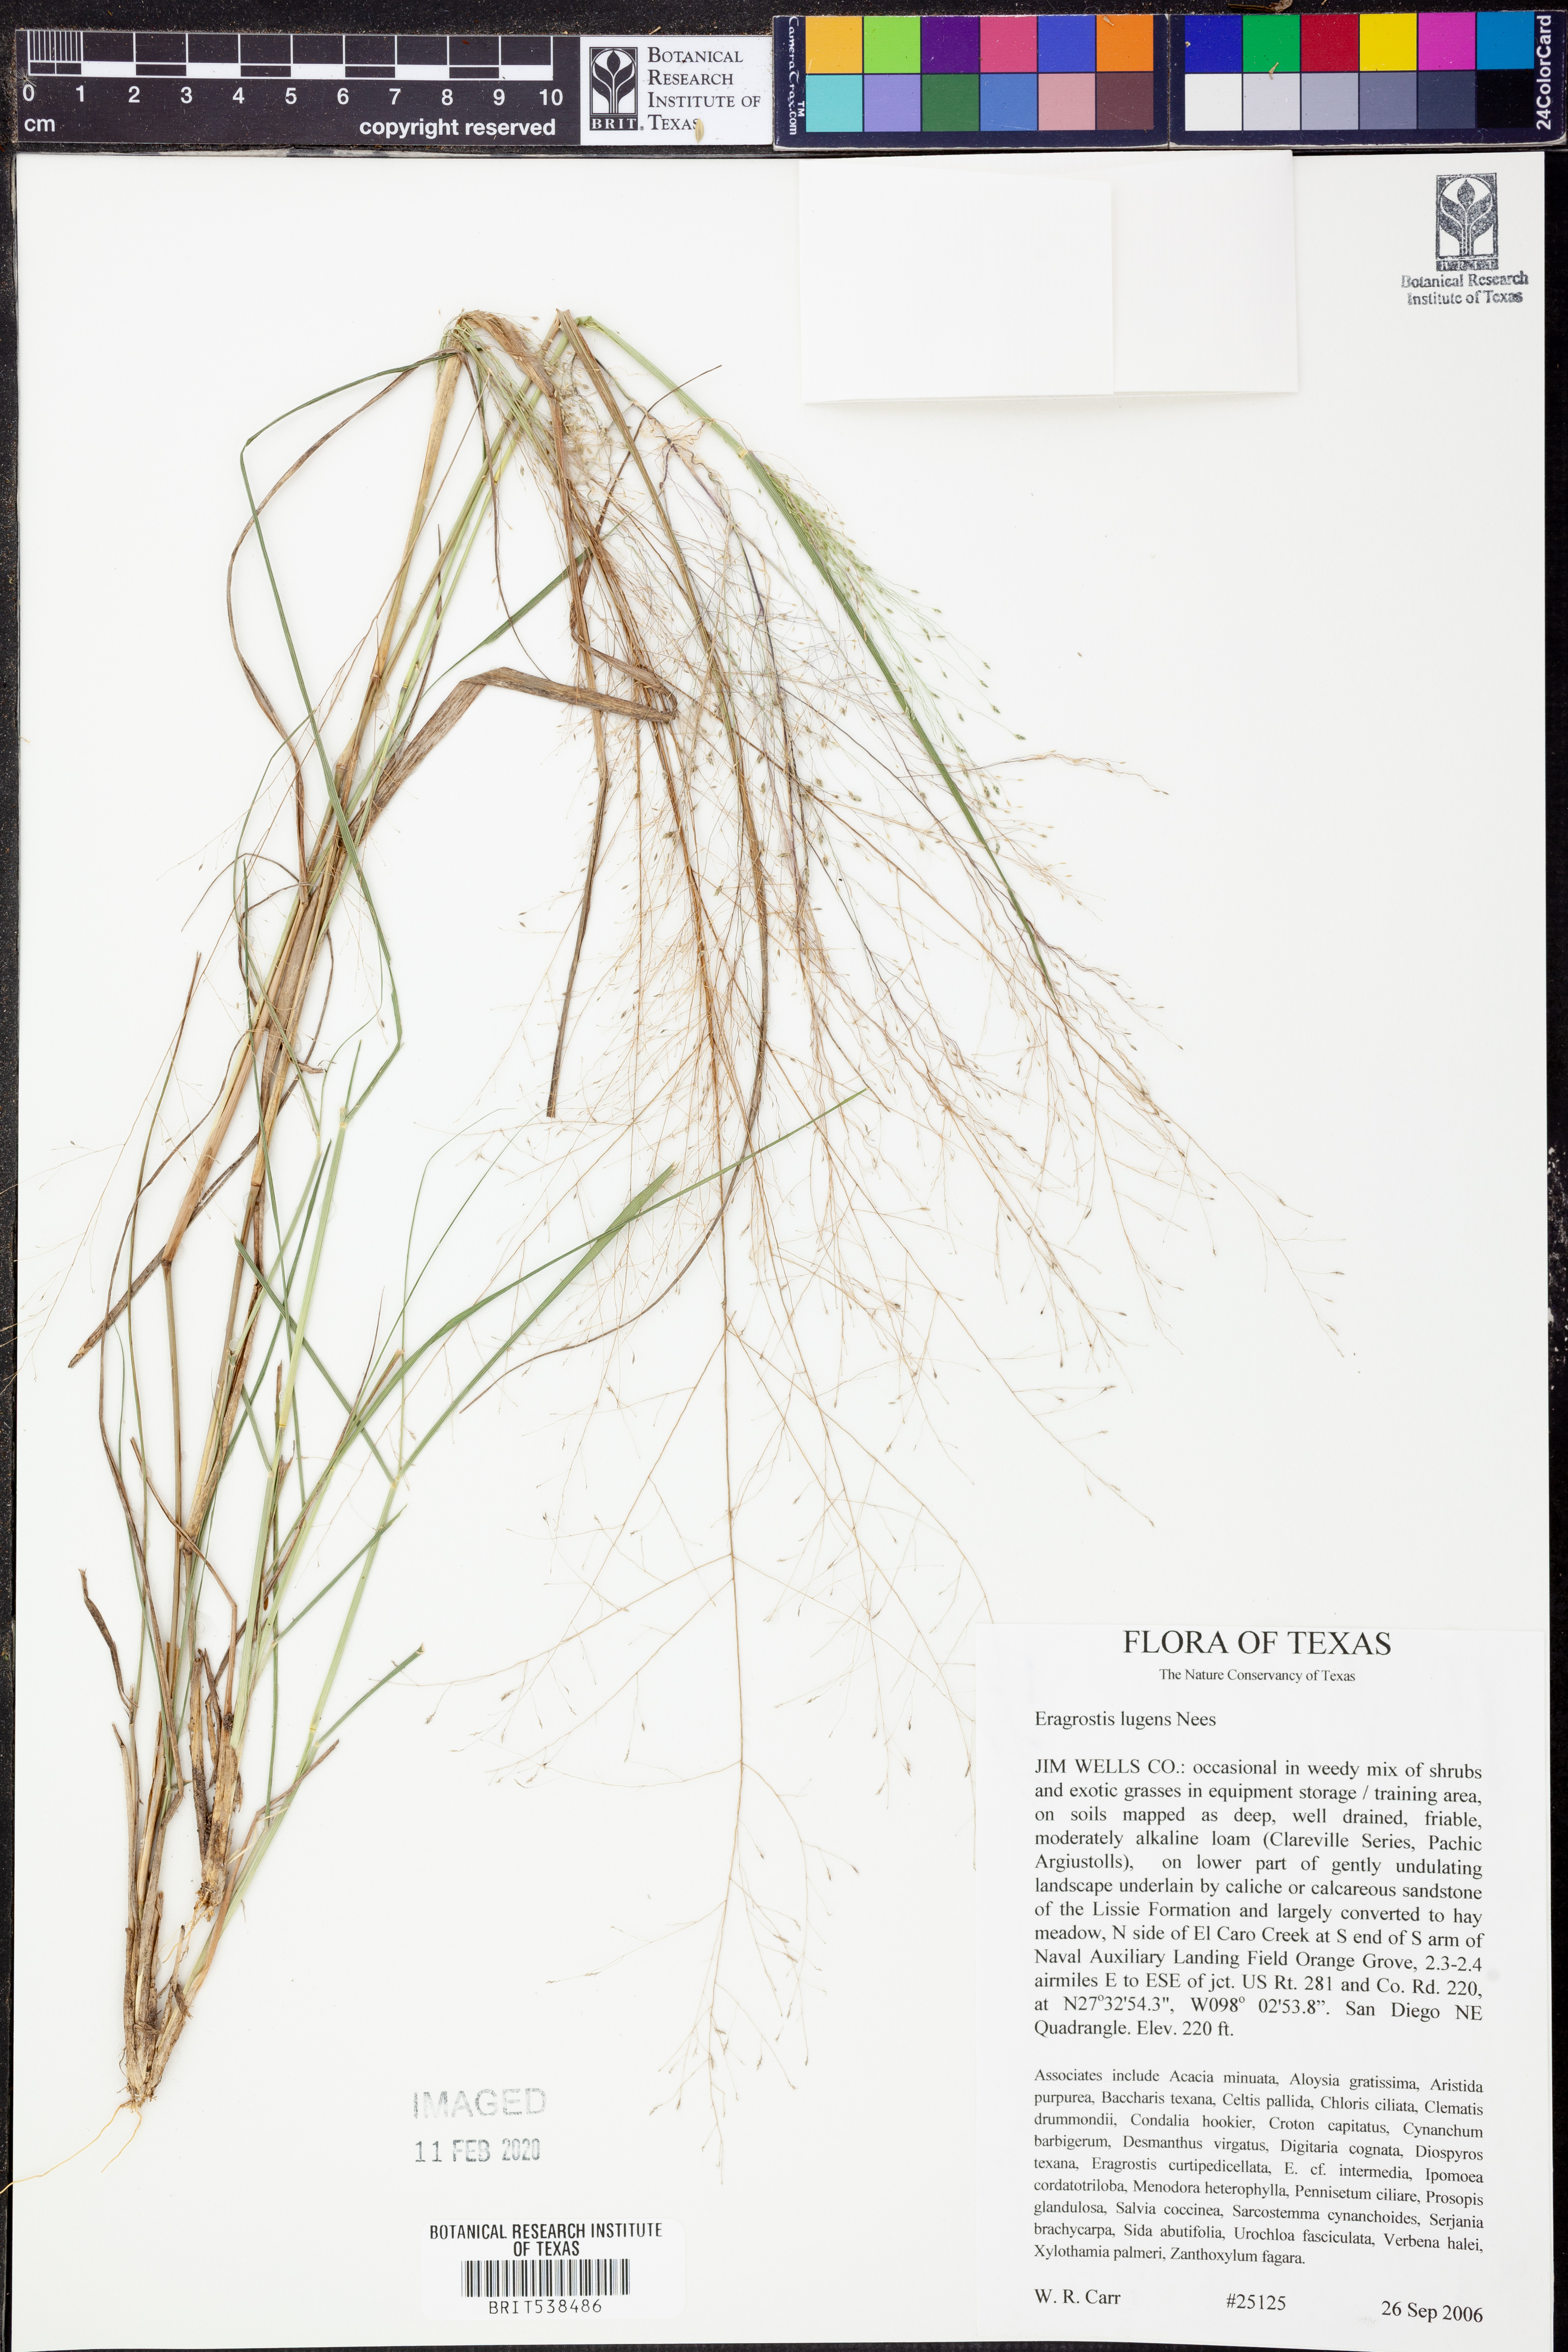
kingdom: Plantae
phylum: Tracheophyta
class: Liliopsida
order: Poales
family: Poaceae
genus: Eragrostis
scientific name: Eragrostis capillaris
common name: Hair-like lovegrass
